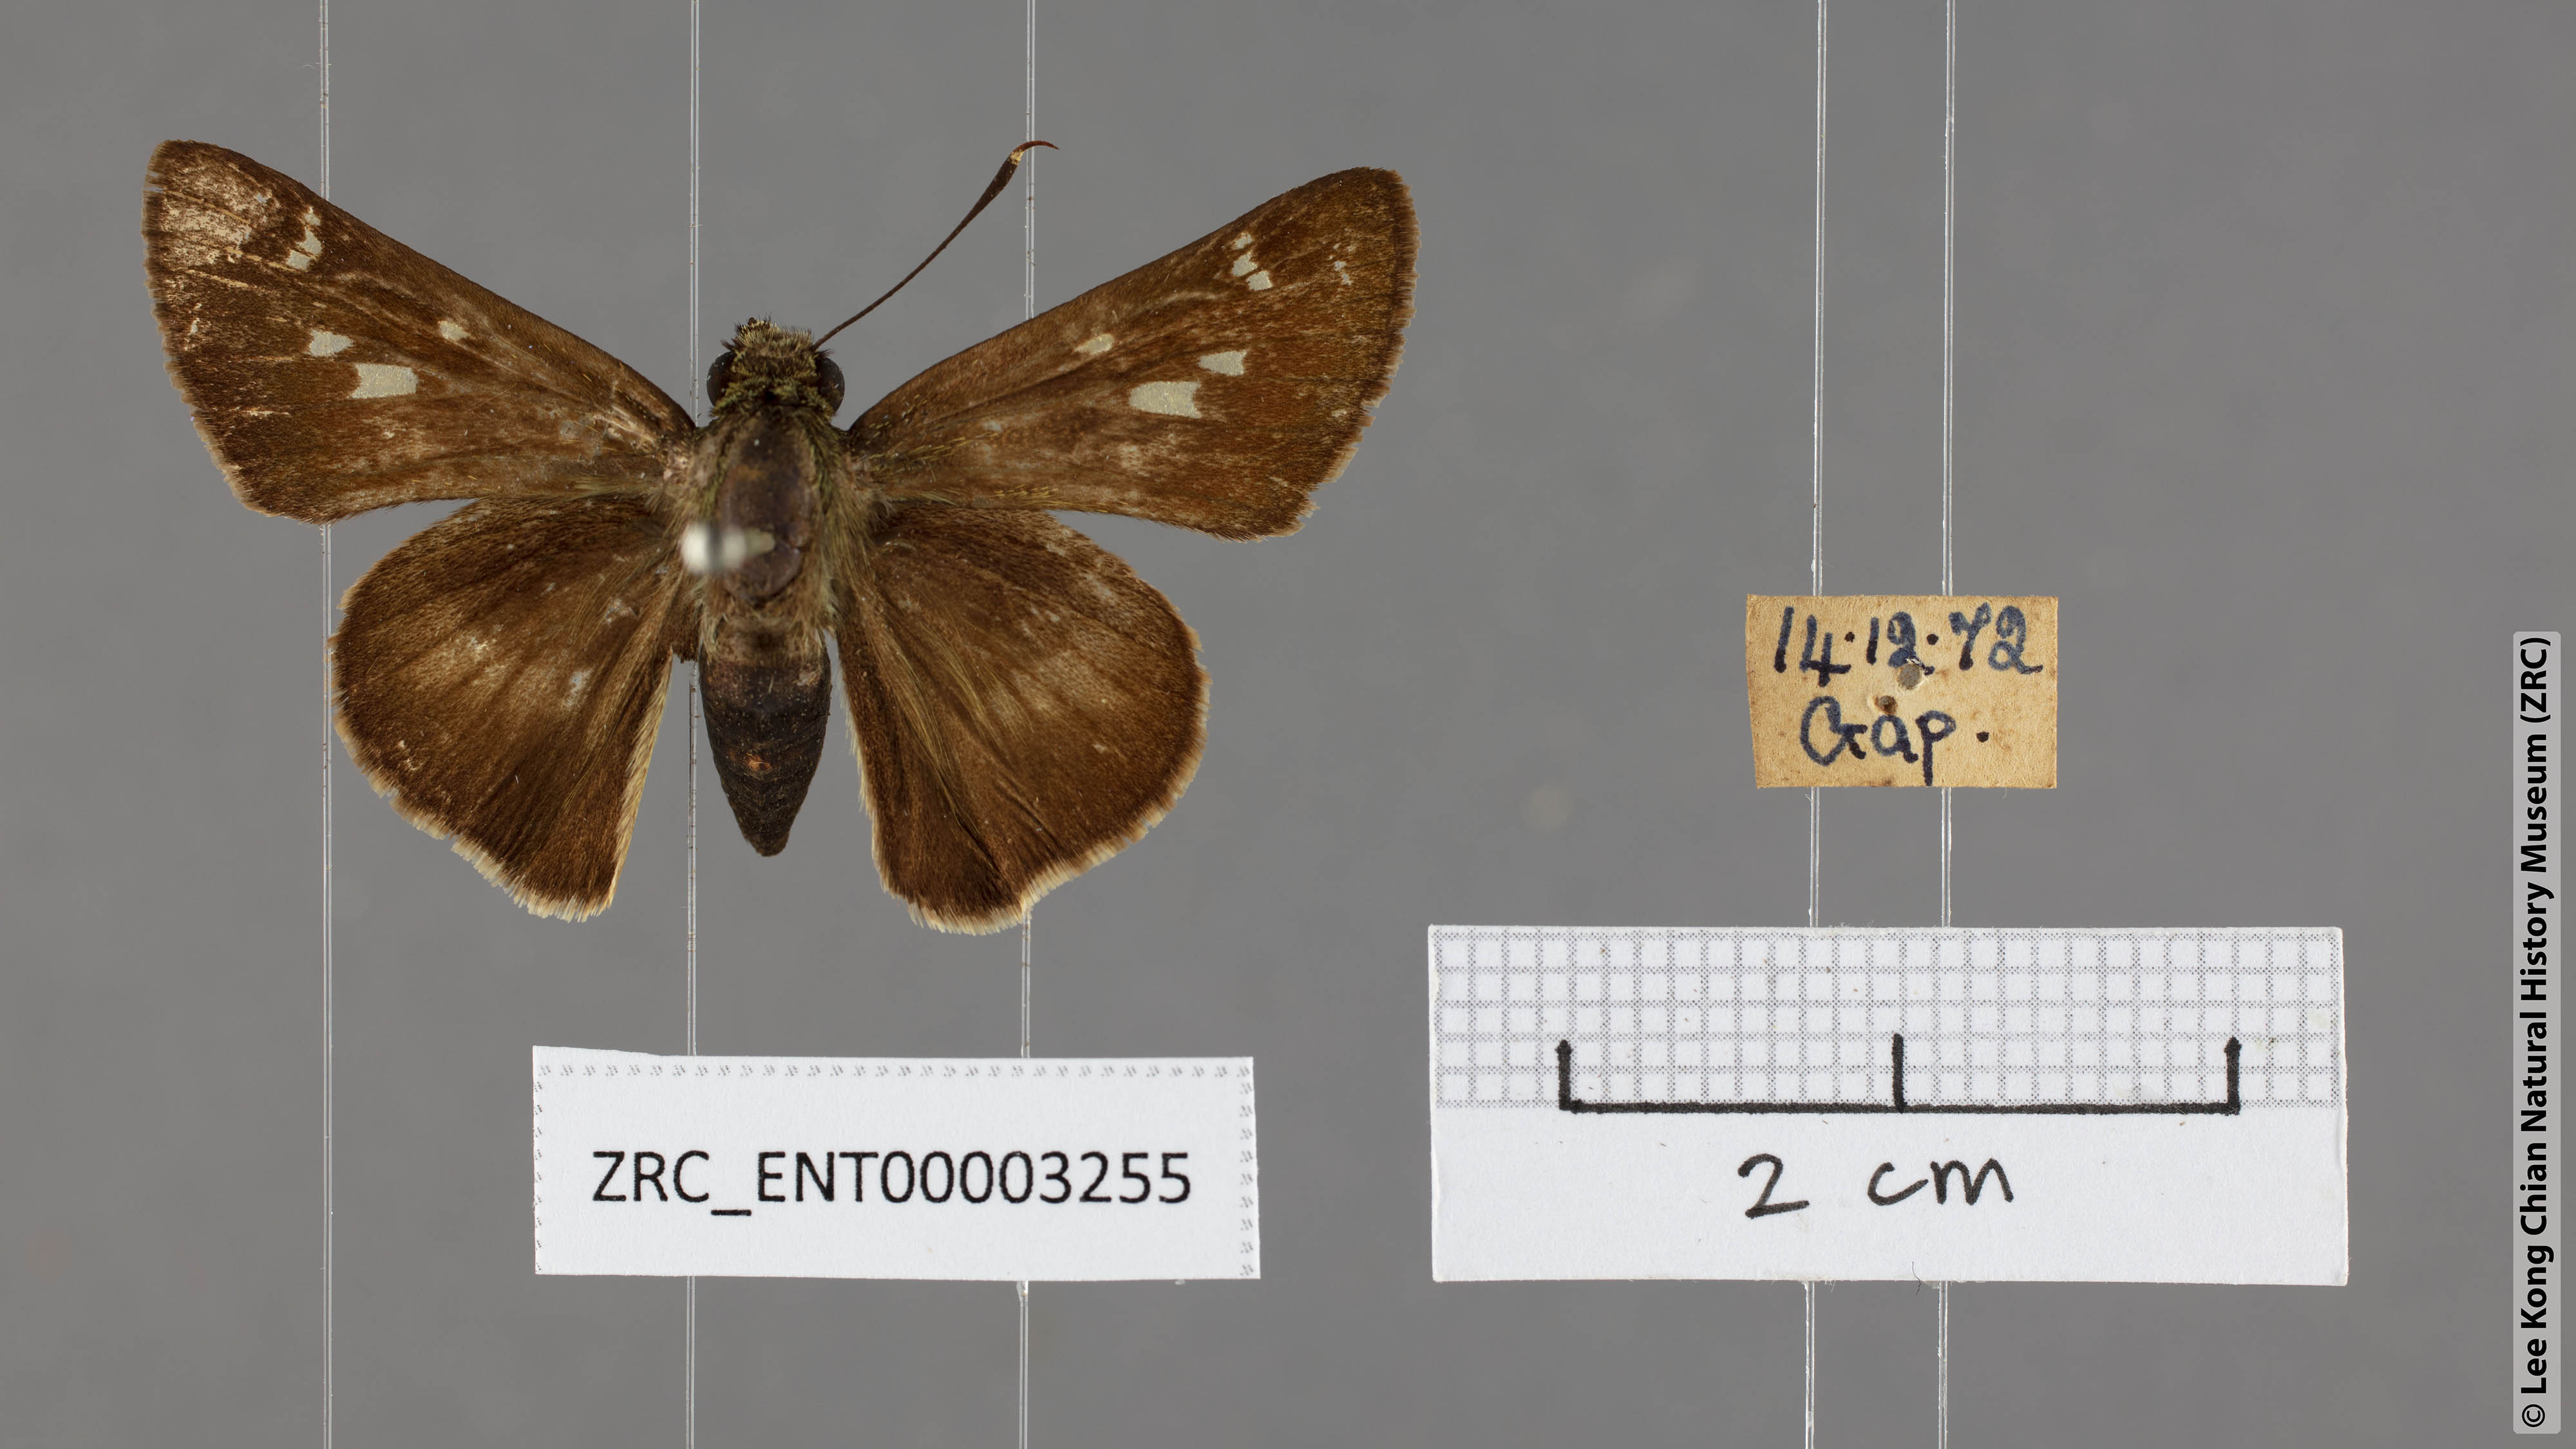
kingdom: Animalia
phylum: Arthropoda
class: Insecta
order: Lepidoptera
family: Hesperiidae
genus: Halpe
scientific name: Halpe zema
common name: Dark banded ace
